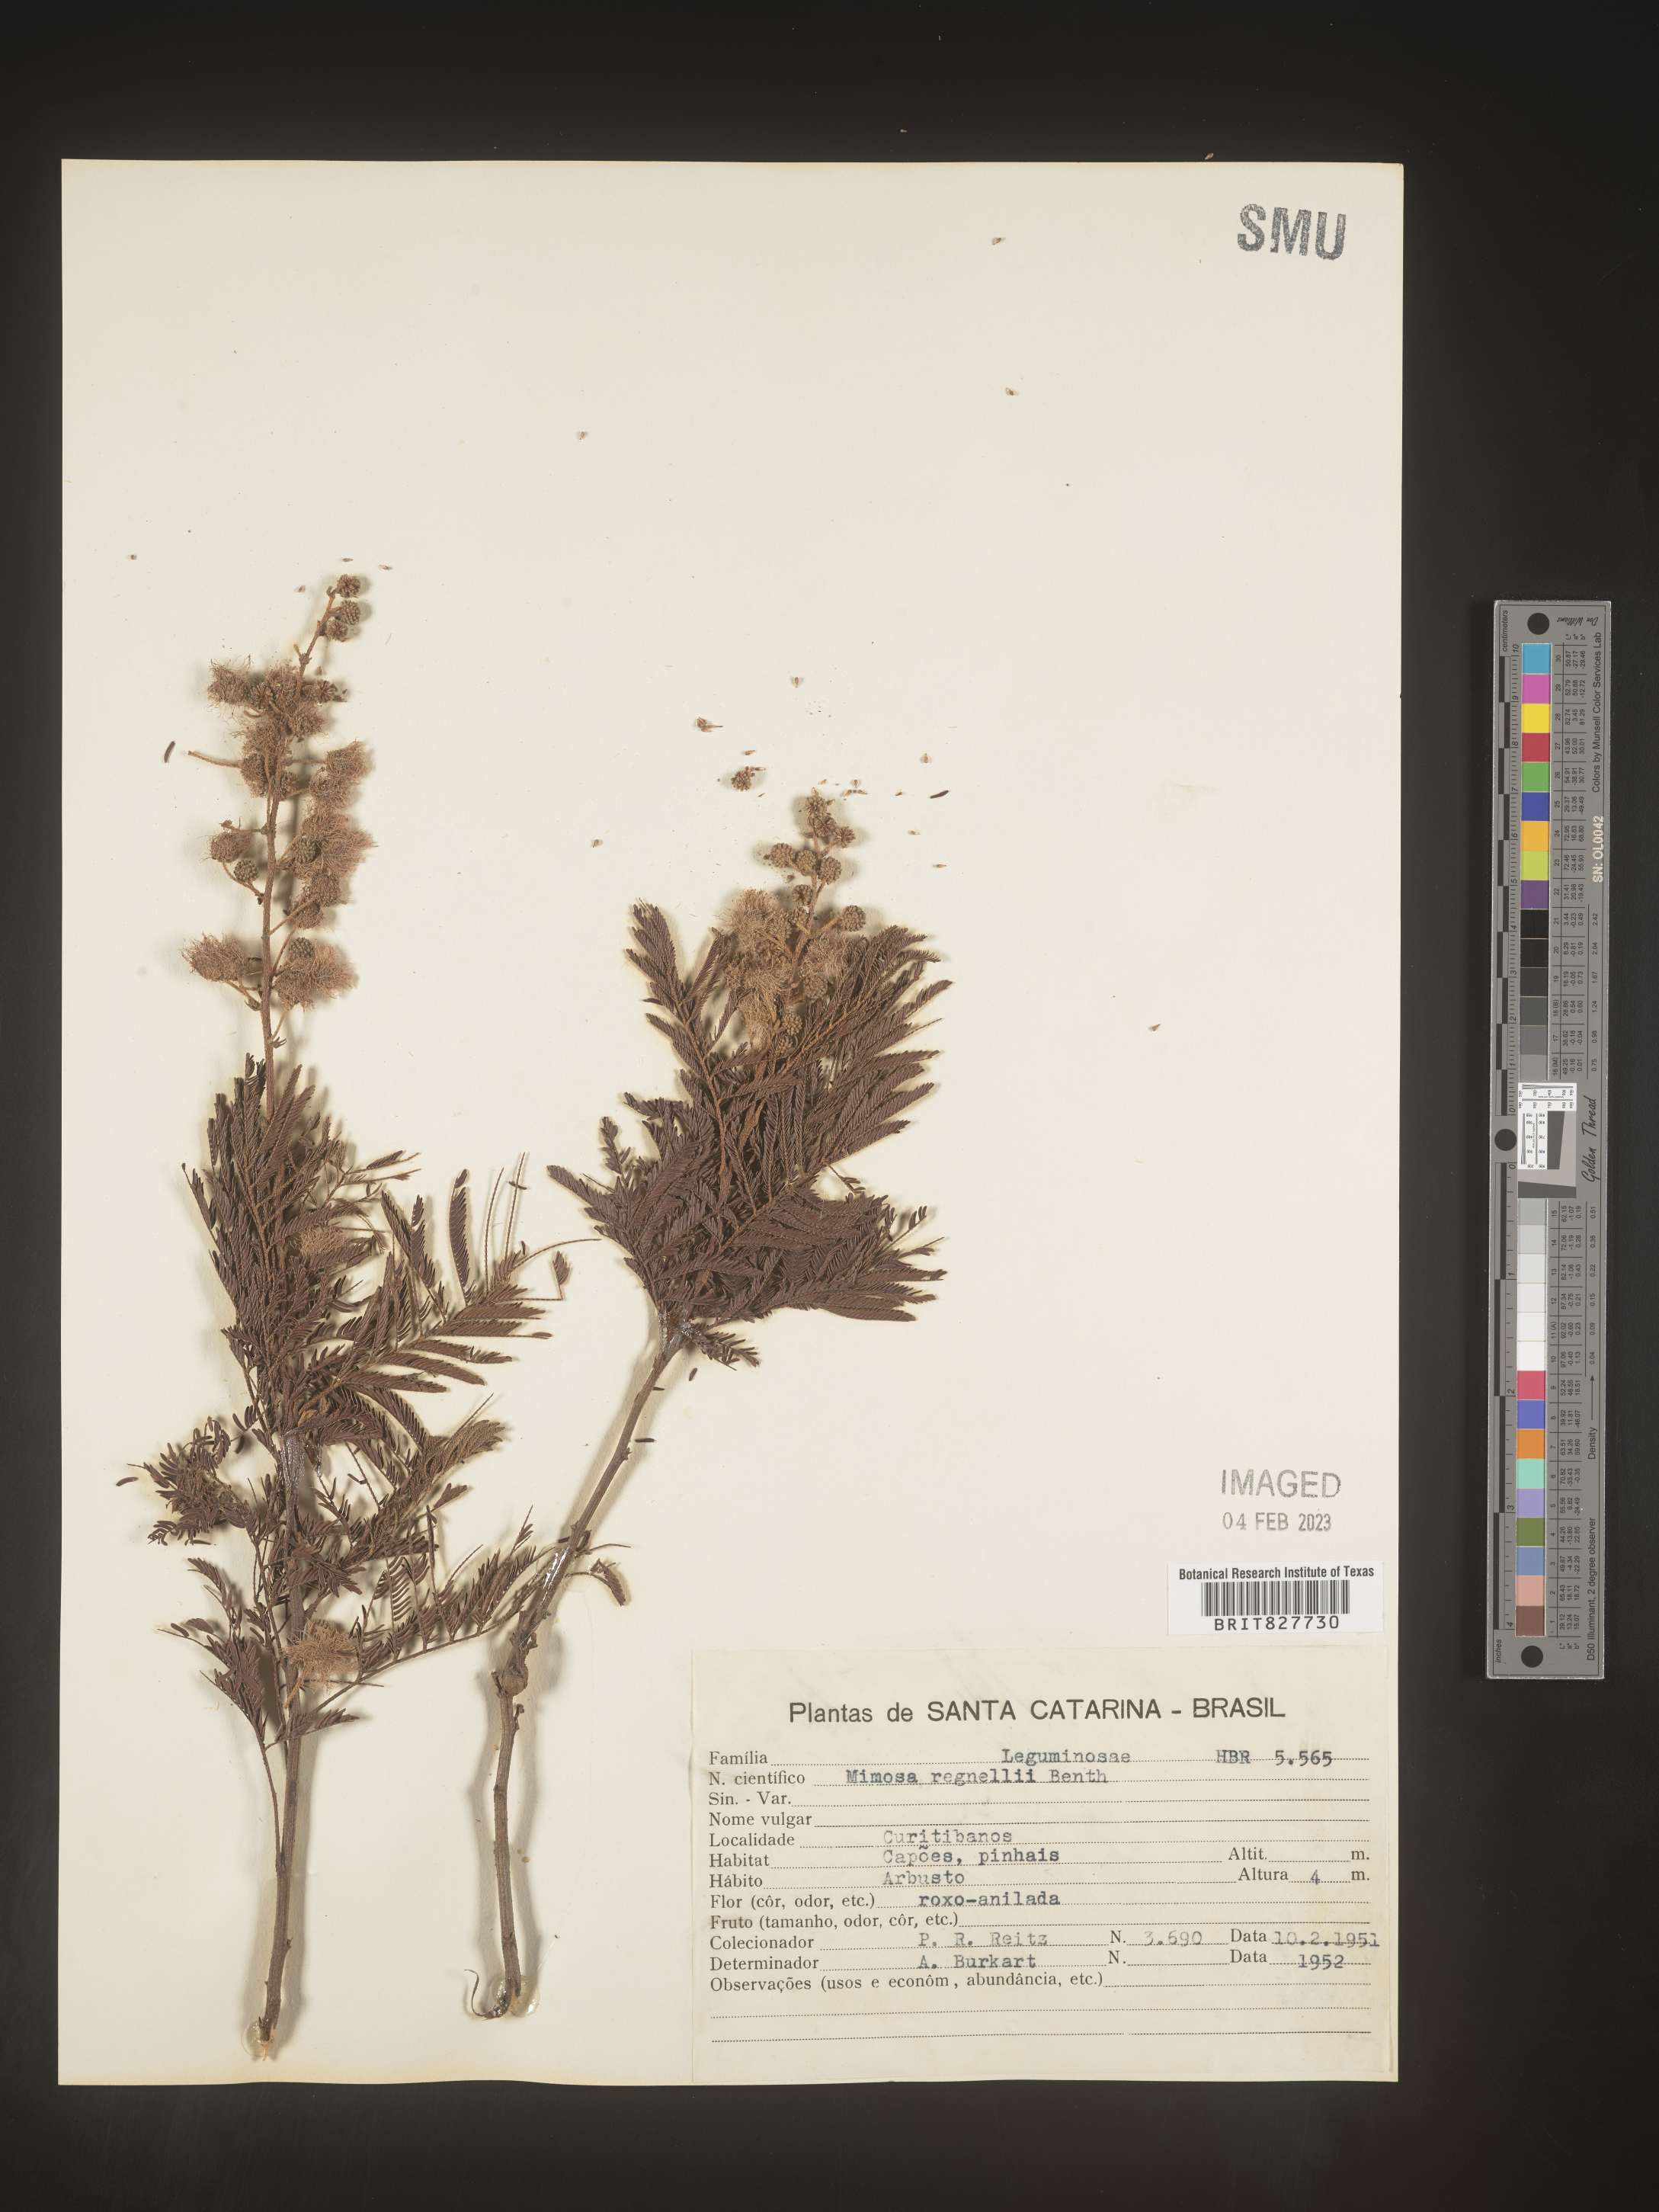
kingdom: Plantae
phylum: Tracheophyta
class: Magnoliopsida
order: Fabales
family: Fabaceae
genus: Mimosa
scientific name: Mimosa
